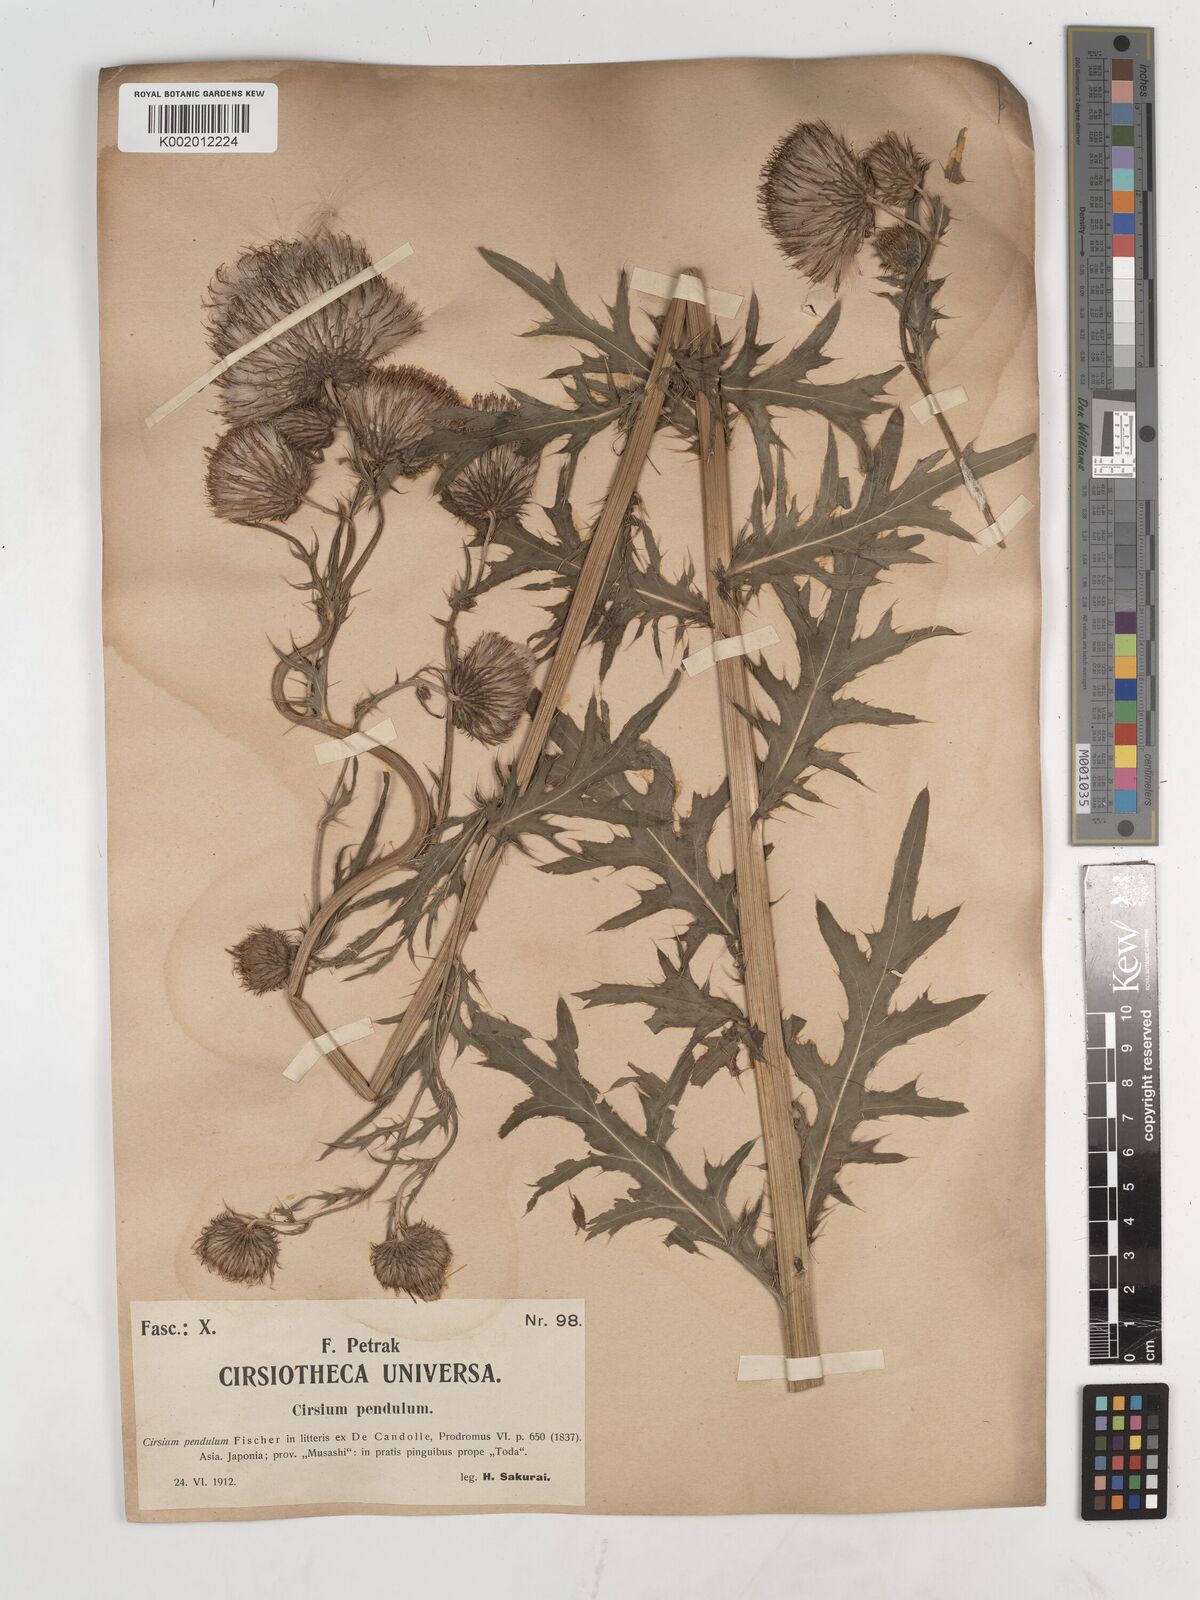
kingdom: Plantae
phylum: Tracheophyta
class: Magnoliopsida
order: Asterales
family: Asteraceae
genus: Cirsium
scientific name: Cirsium pendulum
